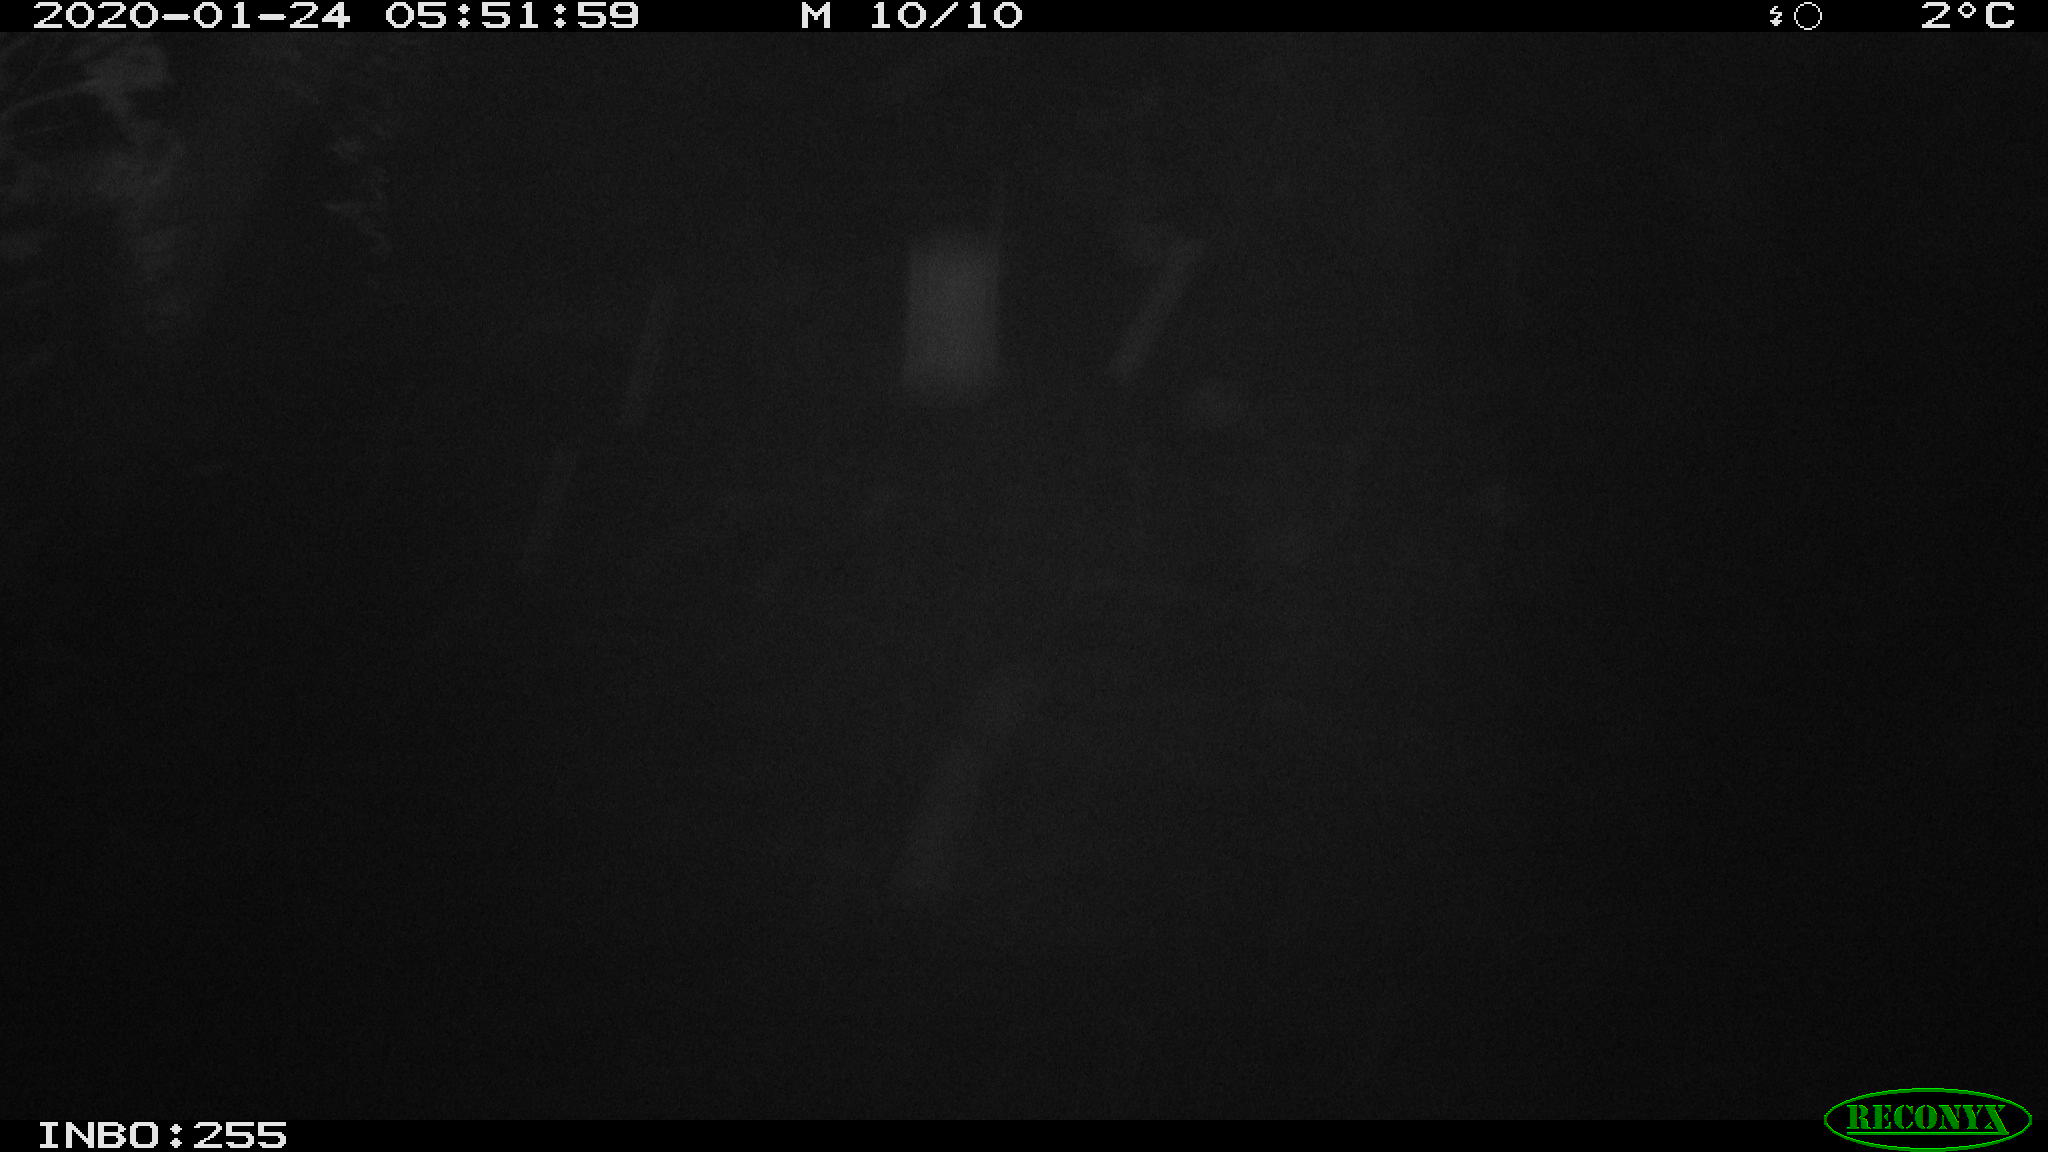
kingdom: Animalia
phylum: Chordata
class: Mammalia
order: Rodentia
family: Cricetidae
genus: Ondatra
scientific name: Ondatra zibethicus
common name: Muskrat
